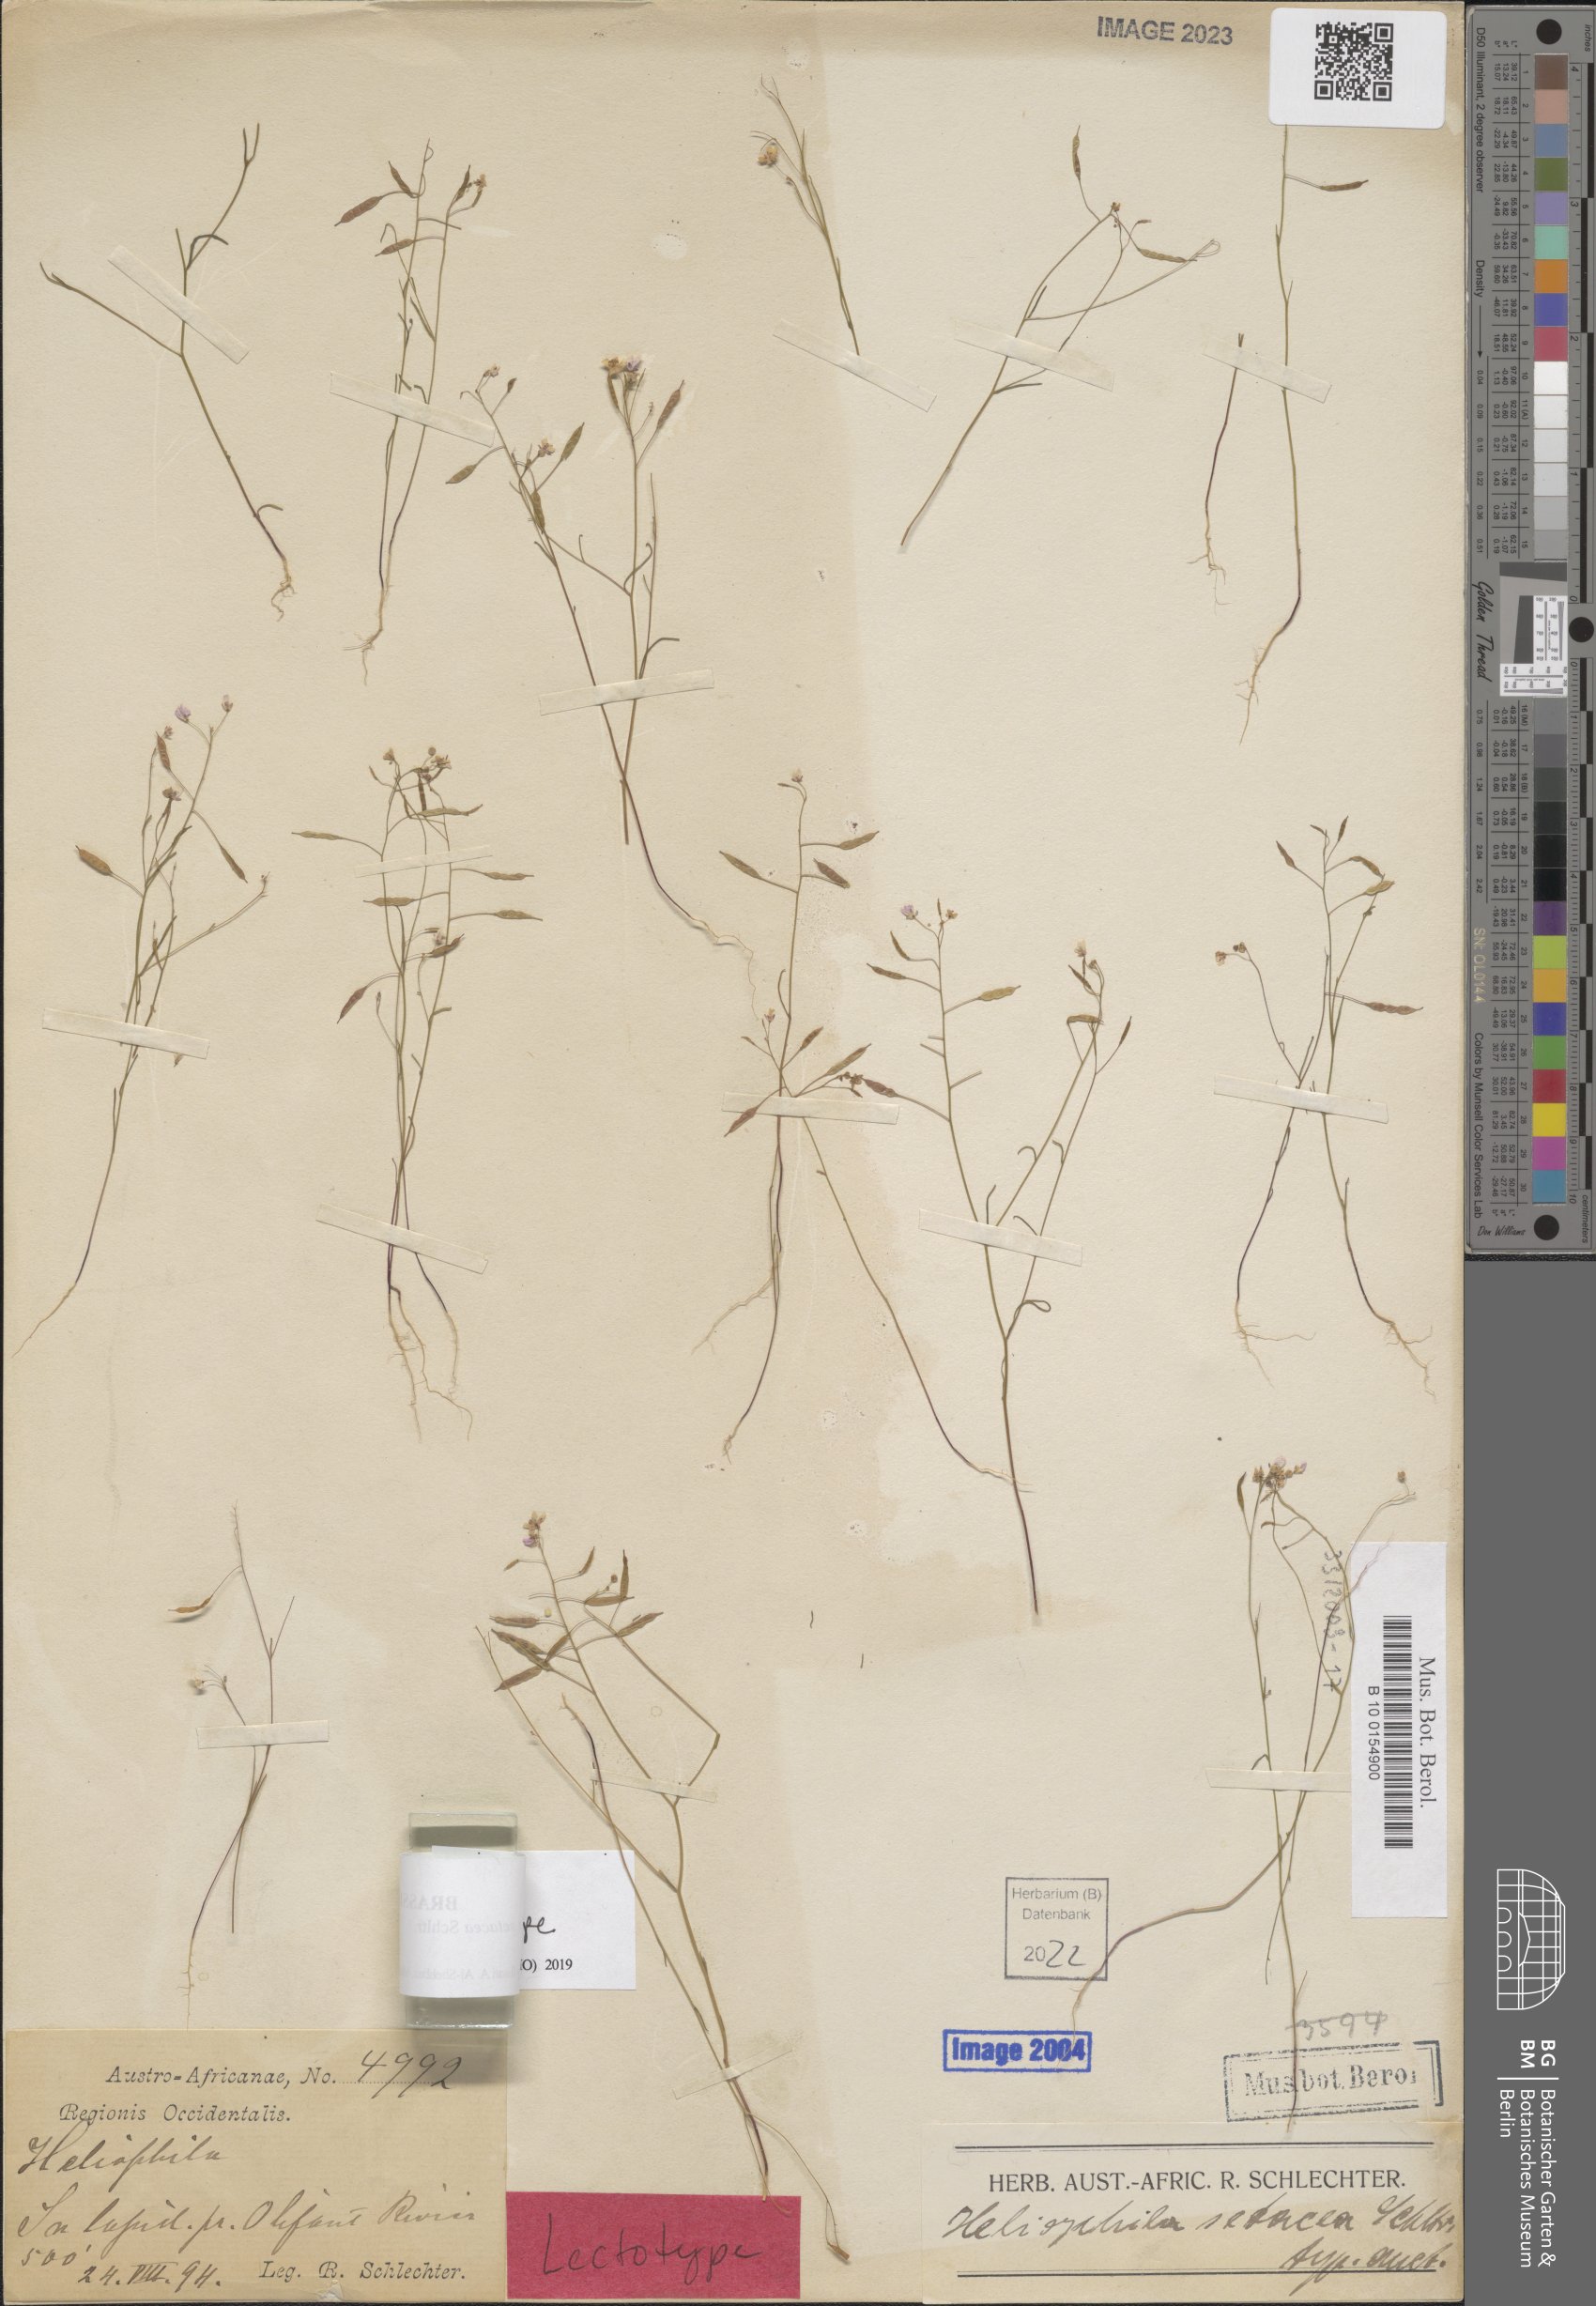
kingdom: Plantae
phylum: Tracheophyta
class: Magnoliopsida
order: Brassicales
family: Brassicaceae
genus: Heliophila
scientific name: Heliophila pusilla
